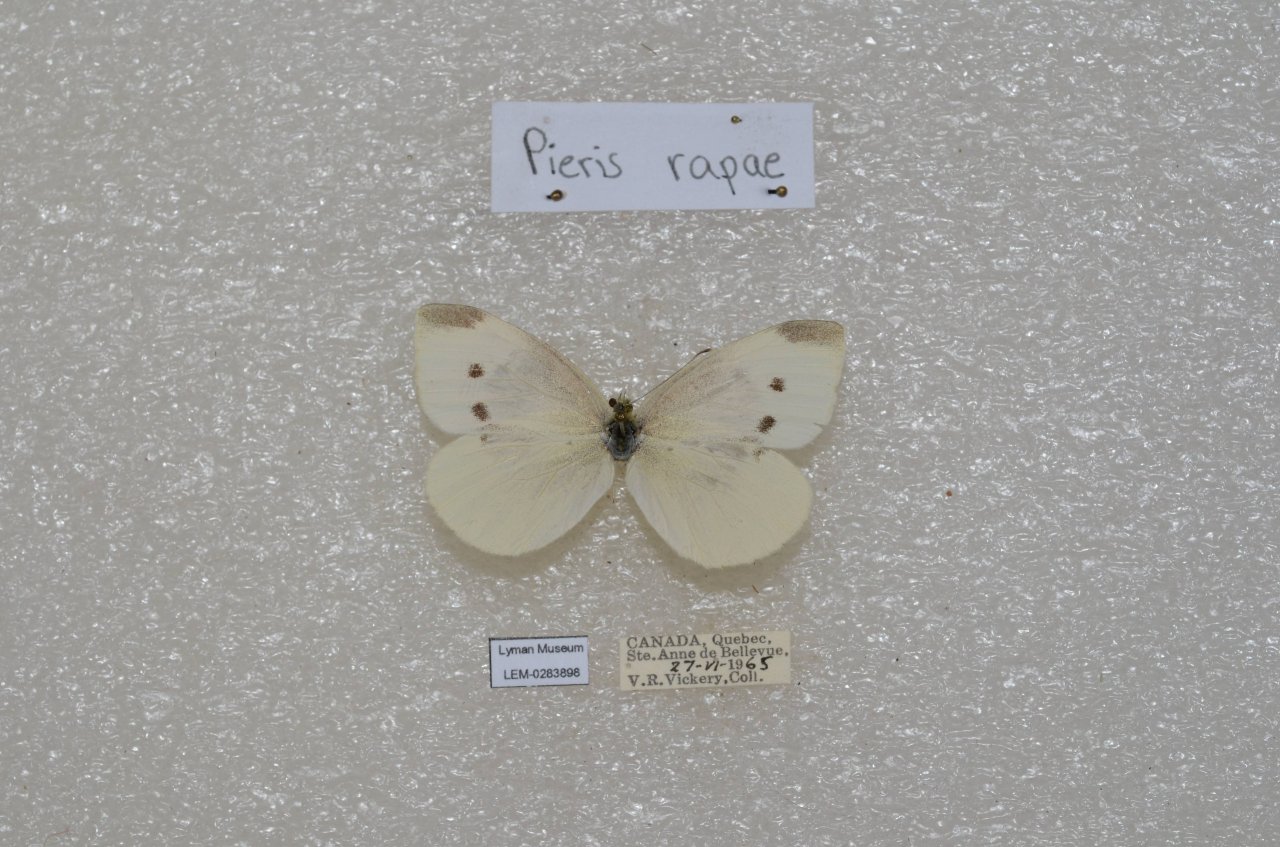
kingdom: Animalia
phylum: Arthropoda
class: Insecta
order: Lepidoptera
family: Pieridae
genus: Pieris
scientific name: Pieris rapae
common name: Cabbage White
